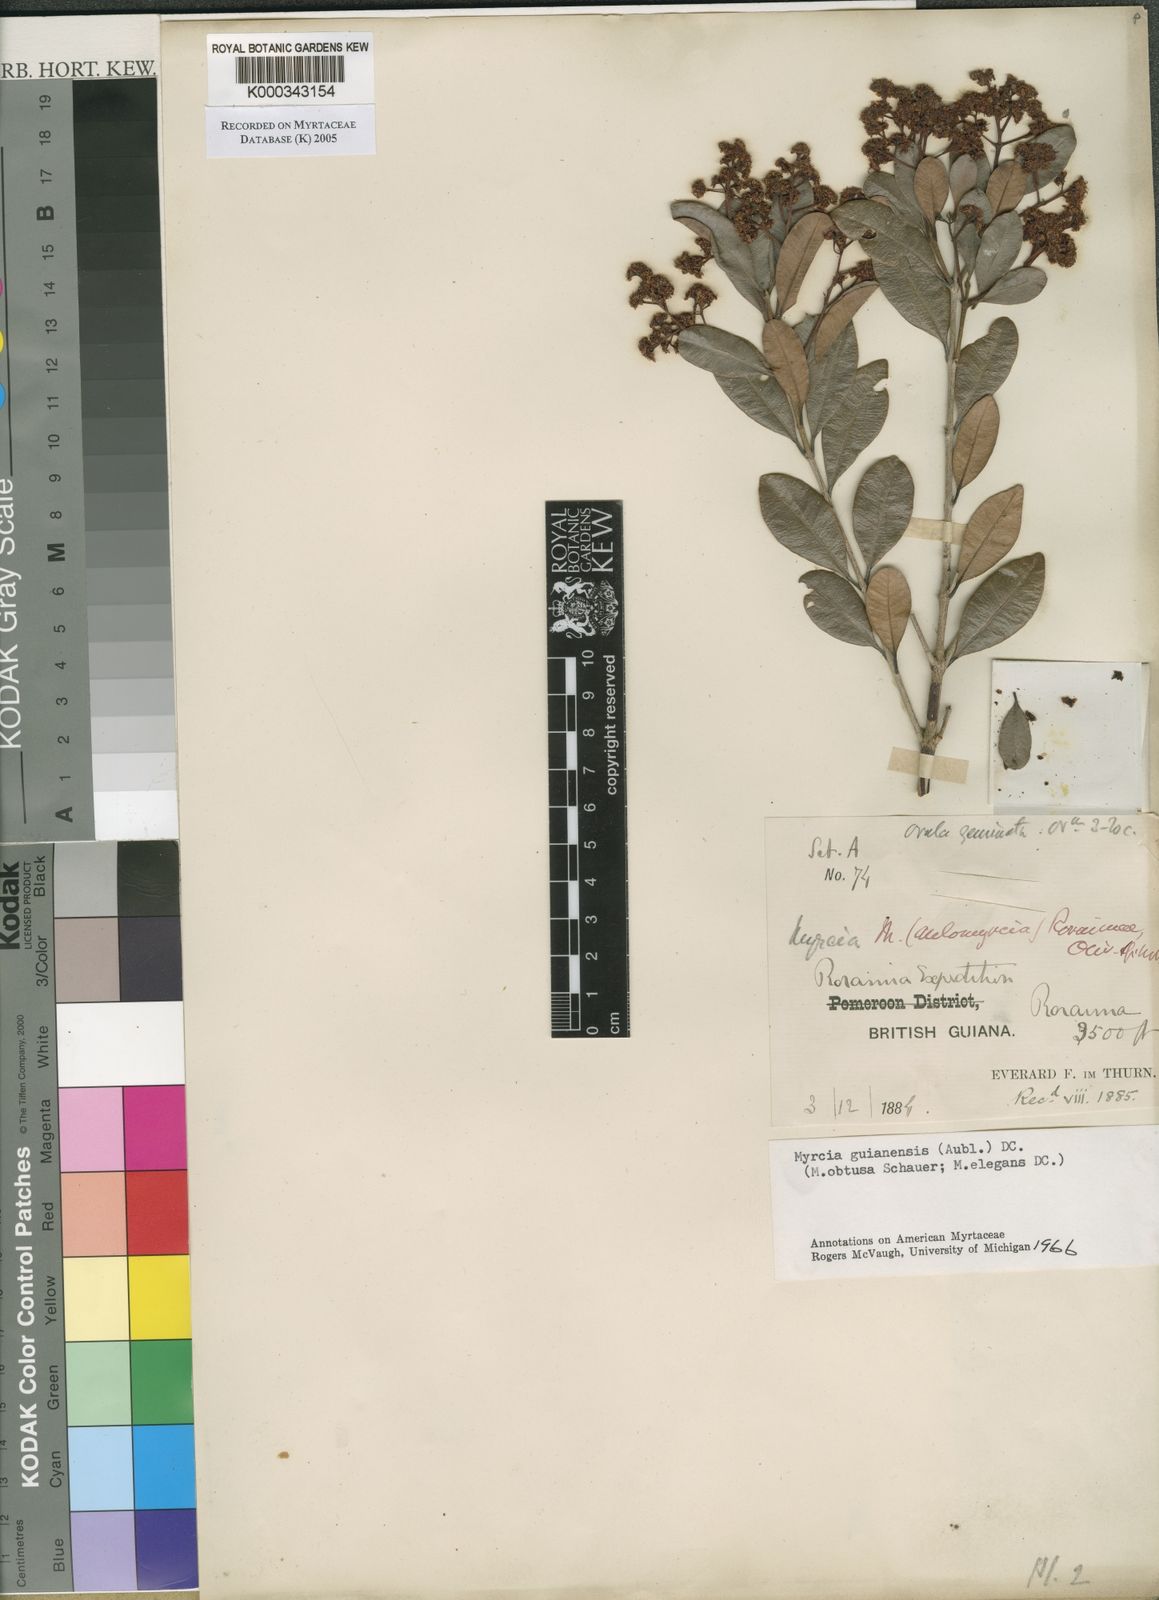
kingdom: Plantae
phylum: Tracheophyta
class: Magnoliopsida
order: Myrtales
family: Myrtaceae
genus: Myrcia
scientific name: Myrcia guianensis
